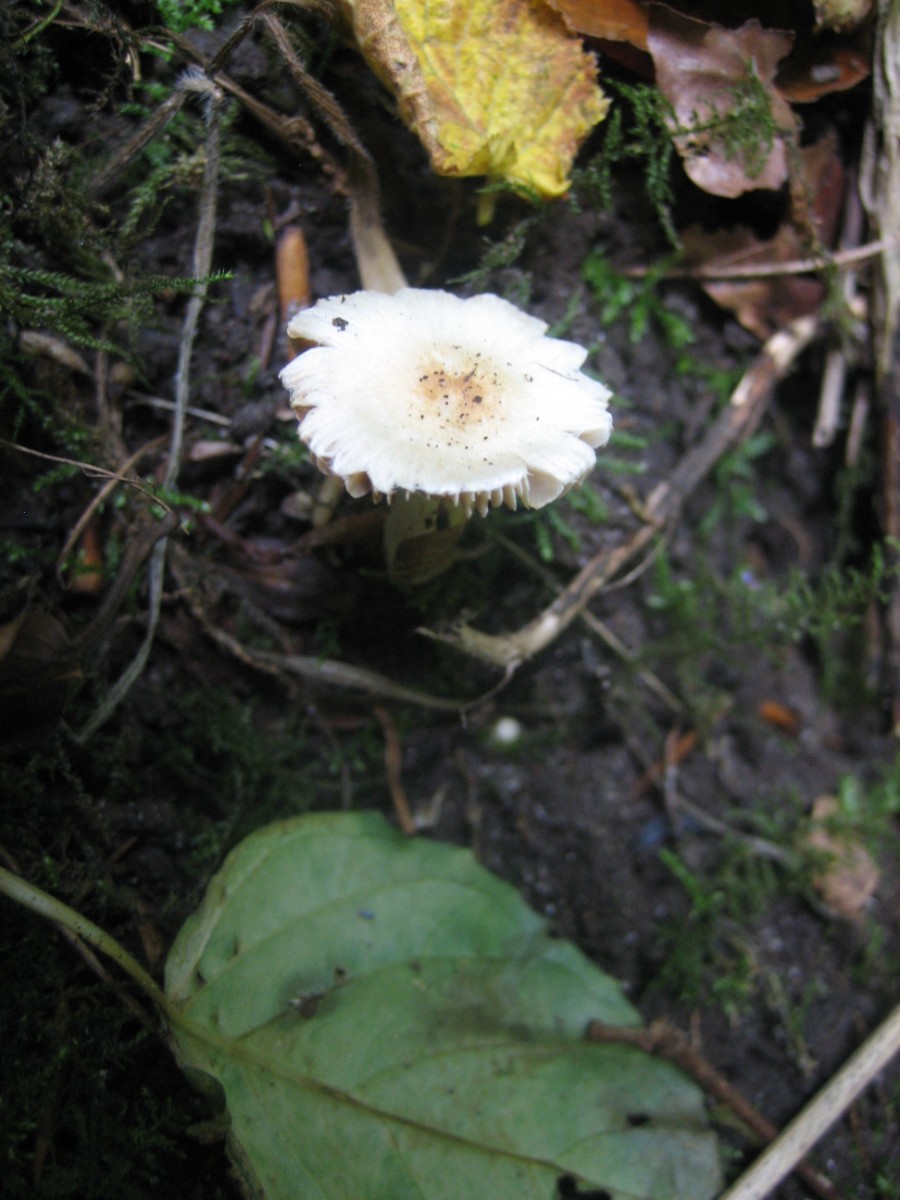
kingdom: Fungi
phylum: Basidiomycota
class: Agaricomycetes
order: Agaricales
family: Inocybaceae
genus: Inocybe
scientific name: Inocybe
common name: trævlhat
